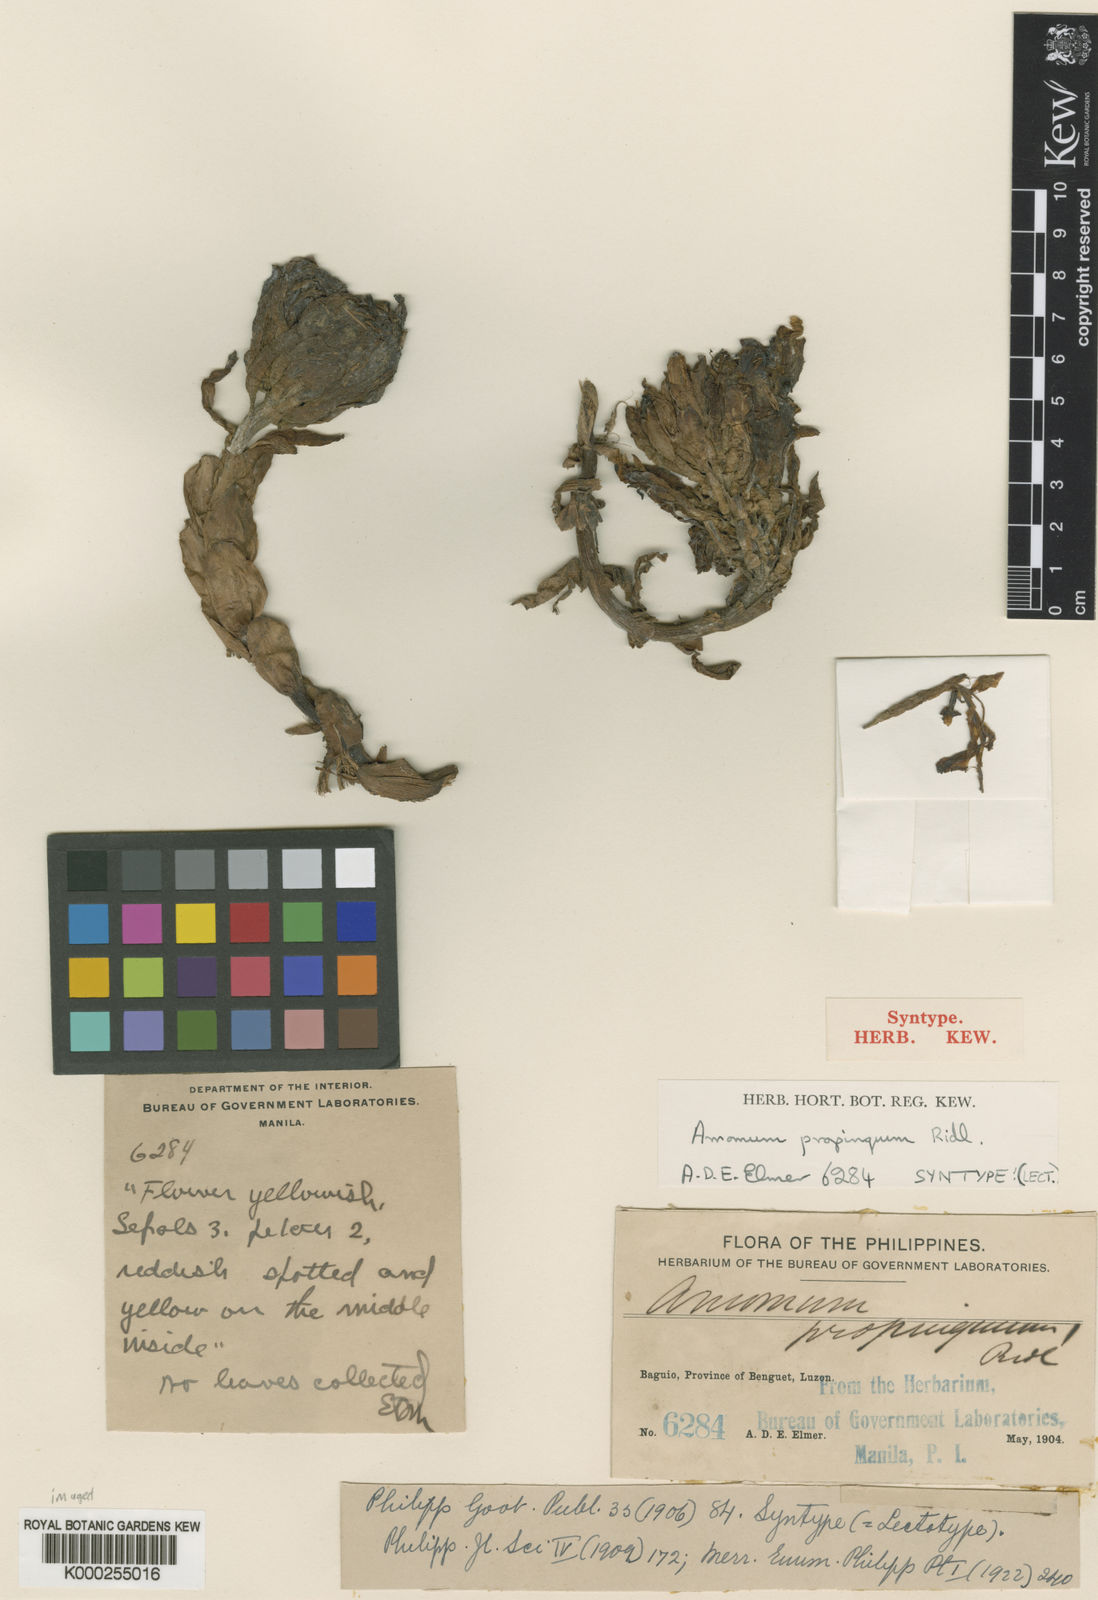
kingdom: Plantae
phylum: Tracheophyta
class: Liliopsida
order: Zingiberales
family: Zingiberaceae
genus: Meistera
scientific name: Meistera propinqua
